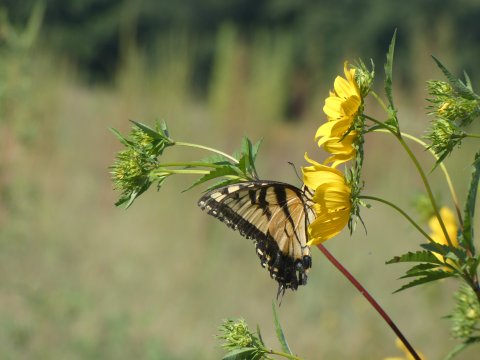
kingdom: Animalia
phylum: Arthropoda
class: Insecta
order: Lepidoptera
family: Papilionidae
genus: Pterourus
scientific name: Pterourus glaucus
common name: Eastern Tiger Swallowtail
